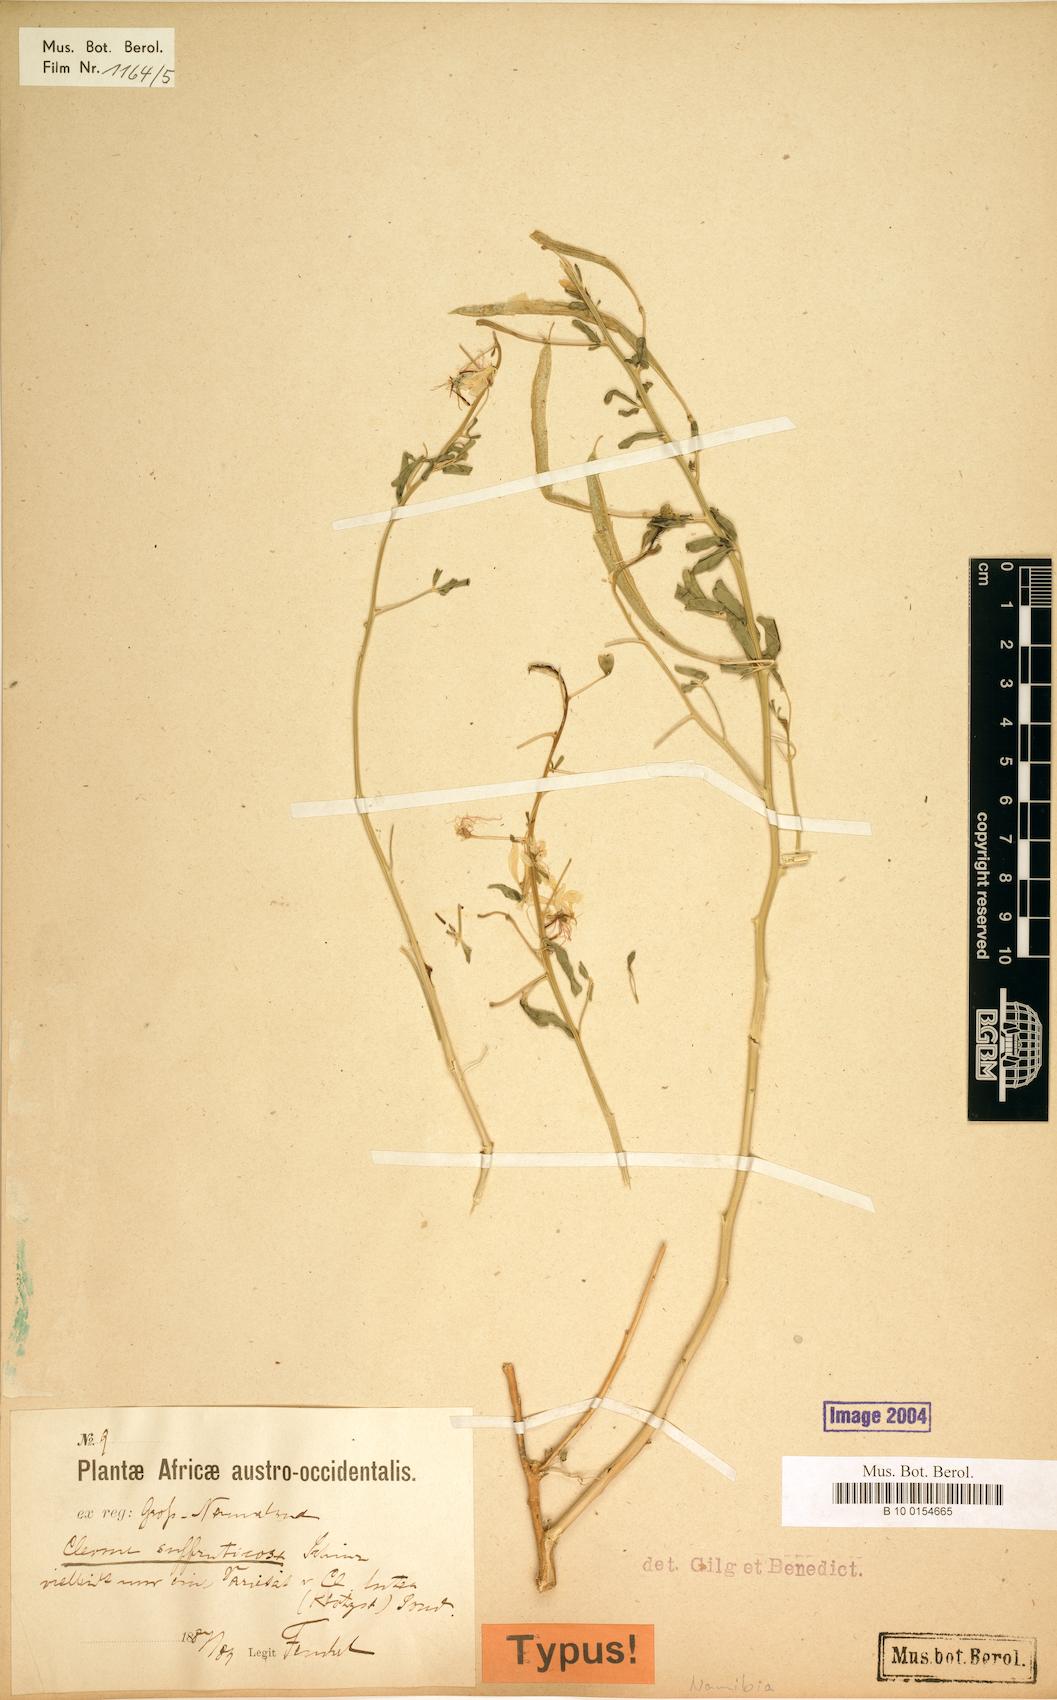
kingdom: Plantae
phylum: Tracheophyta
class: Magnoliopsida
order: Brassicales
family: Cleomaceae
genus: Kersia
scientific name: Kersia suffruticosa
